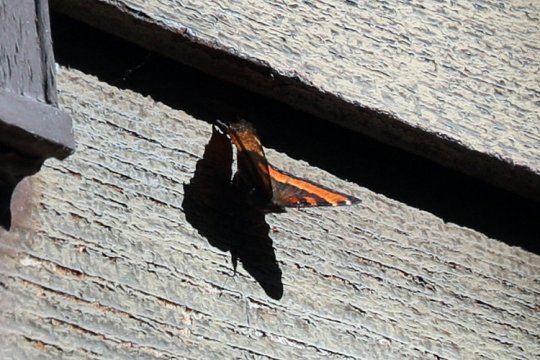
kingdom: Animalia
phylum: Arthropoda
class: Insecta
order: Lepidoptera
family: Nymphalidae
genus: Aglais
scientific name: Aglais milberti
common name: Milbert's Tortoiseshell
